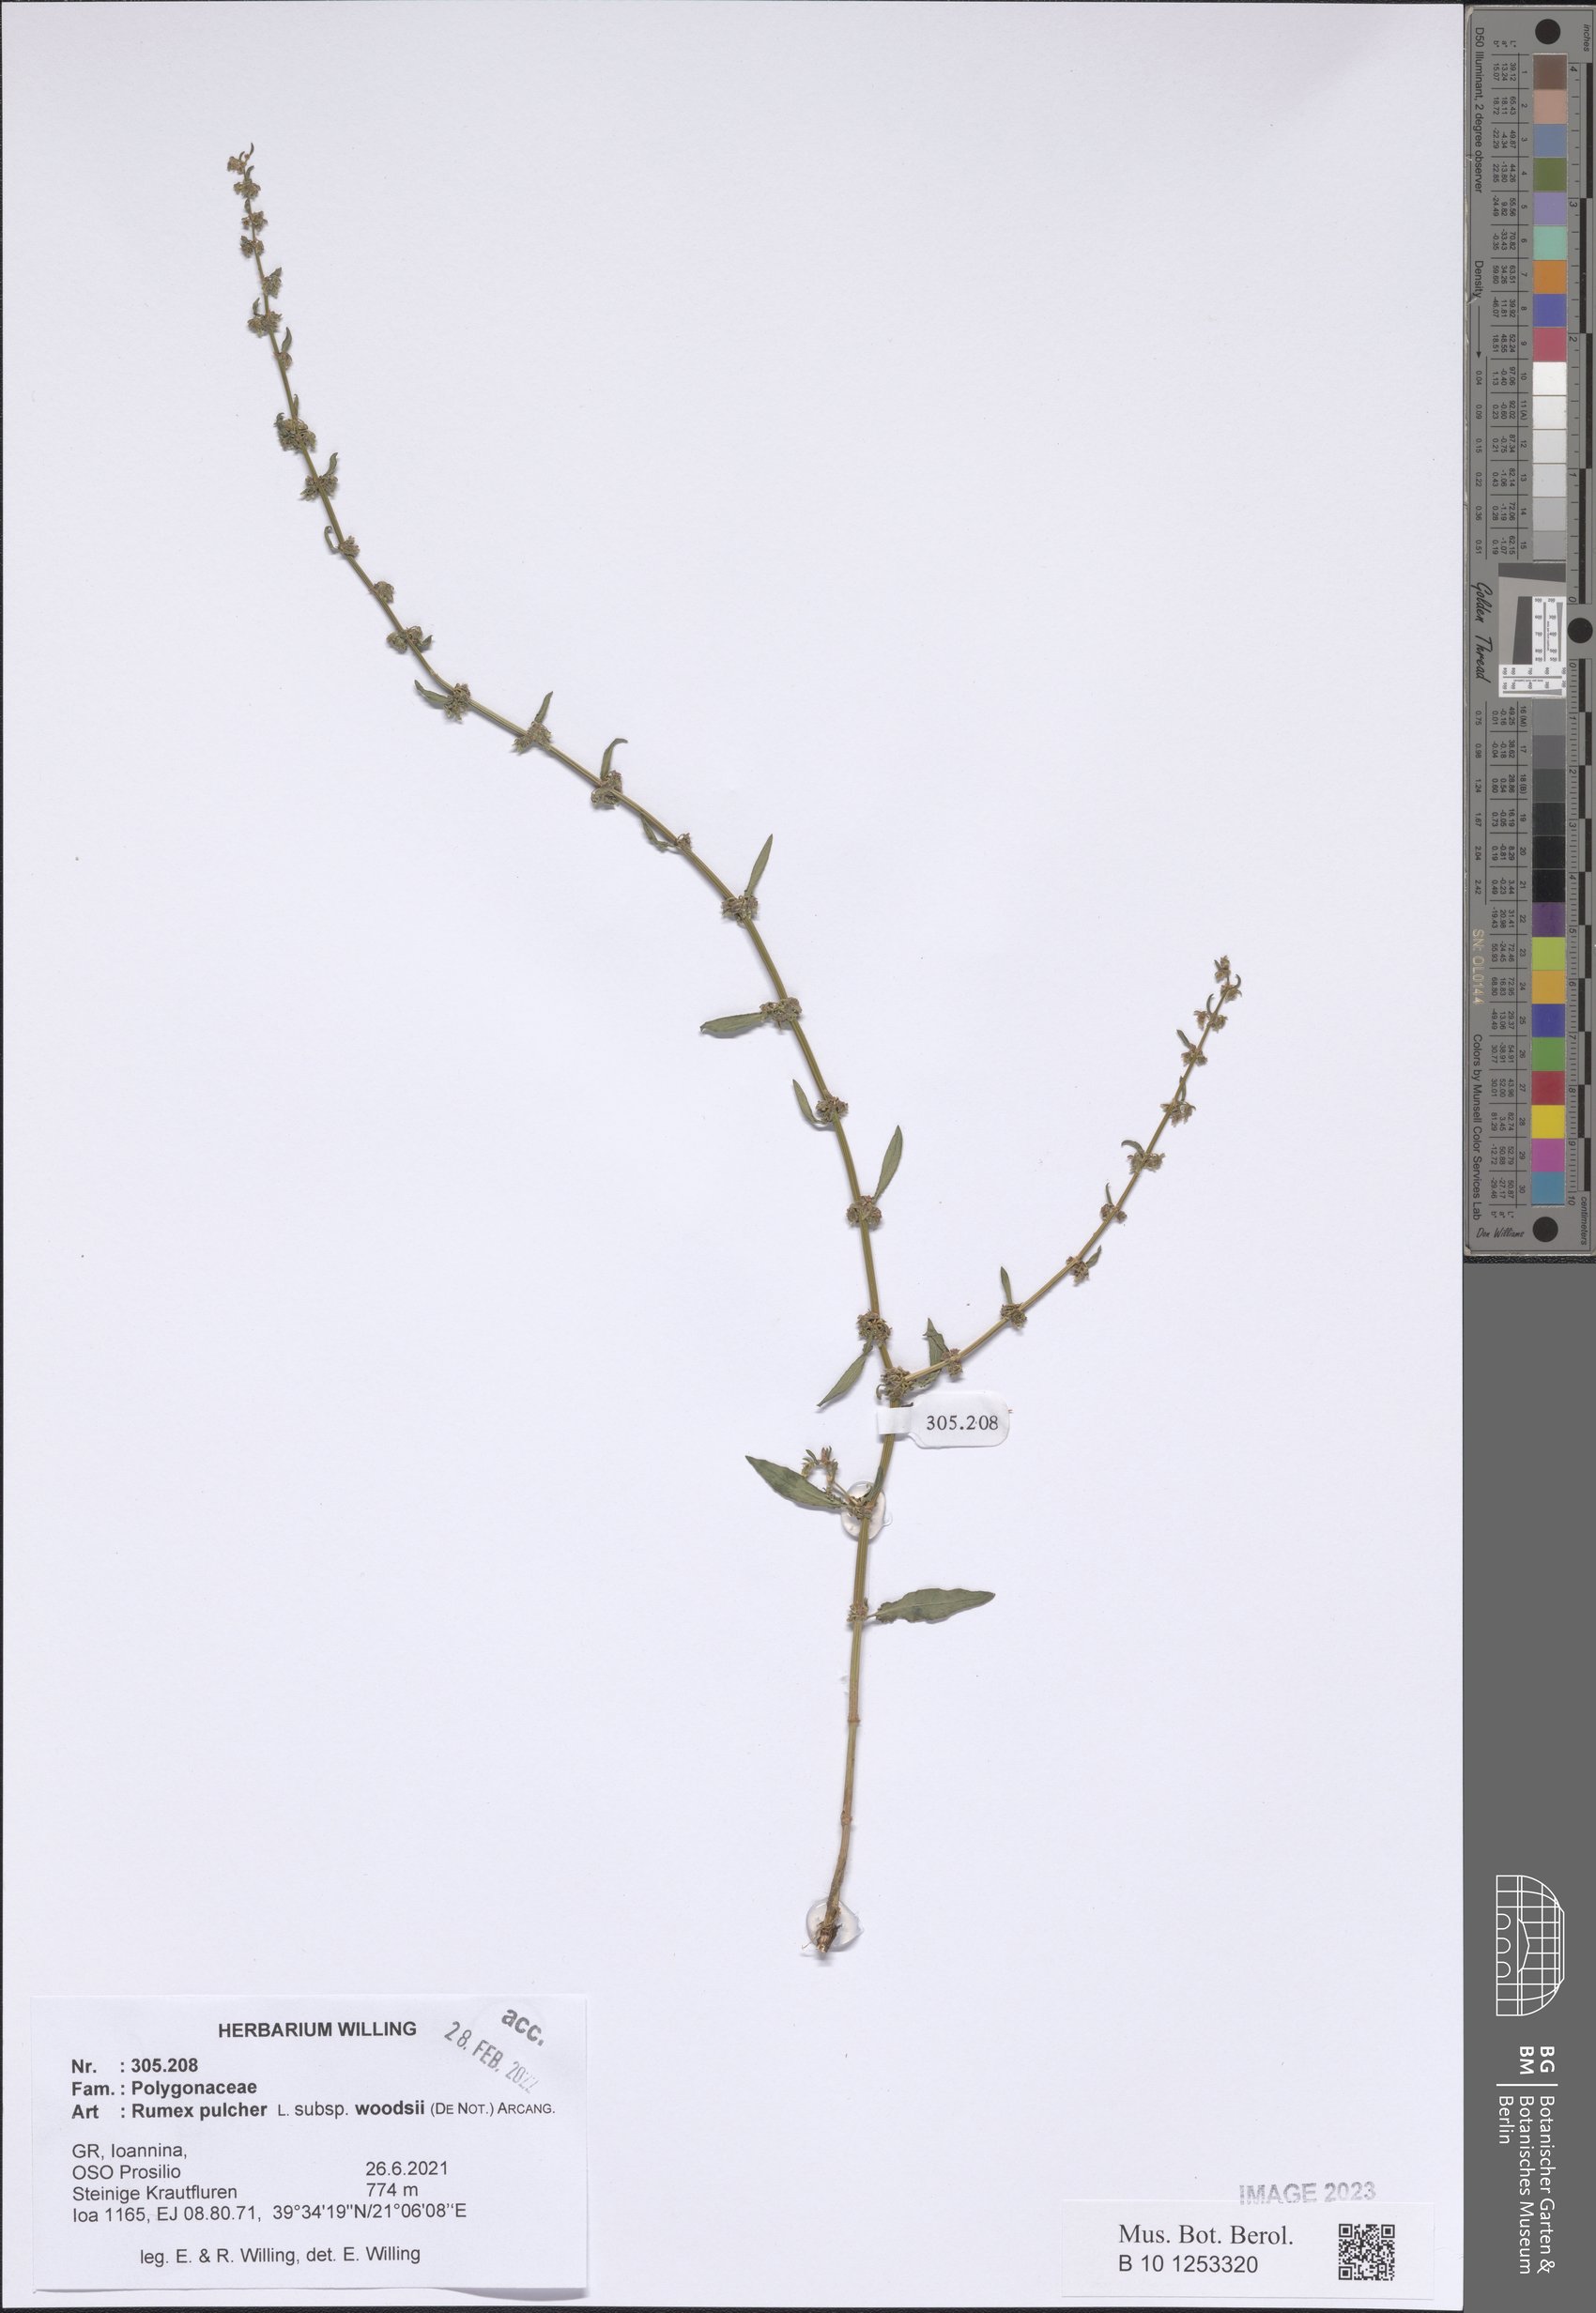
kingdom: Plantae
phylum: Tracheophyta
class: Magnoliopsida
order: Caryophyllales
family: Polygonaceae
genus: Rumex
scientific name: Rumex pulcher
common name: Fiddle dock
